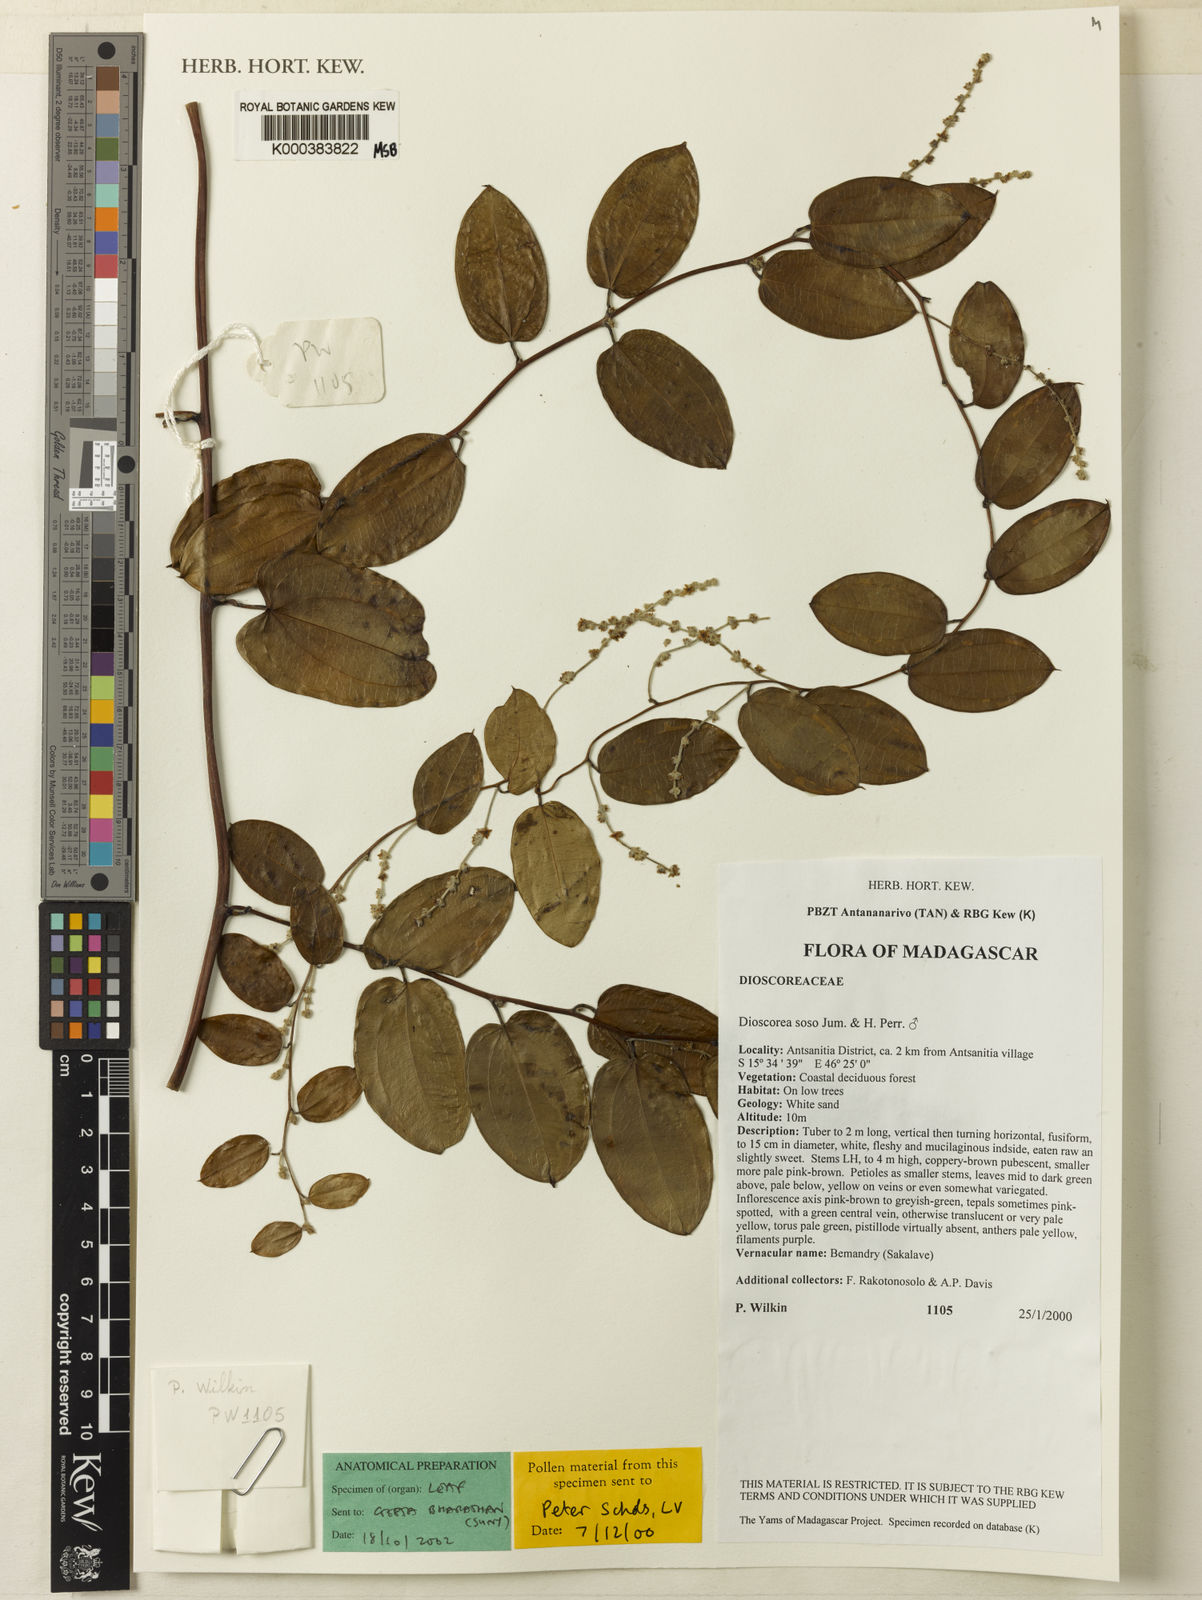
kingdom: Plantae
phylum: Tracheophyta
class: Liliopsida
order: Dioscoreales
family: Dioscoreaceae
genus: Dioscorea
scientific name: Dioscorea
